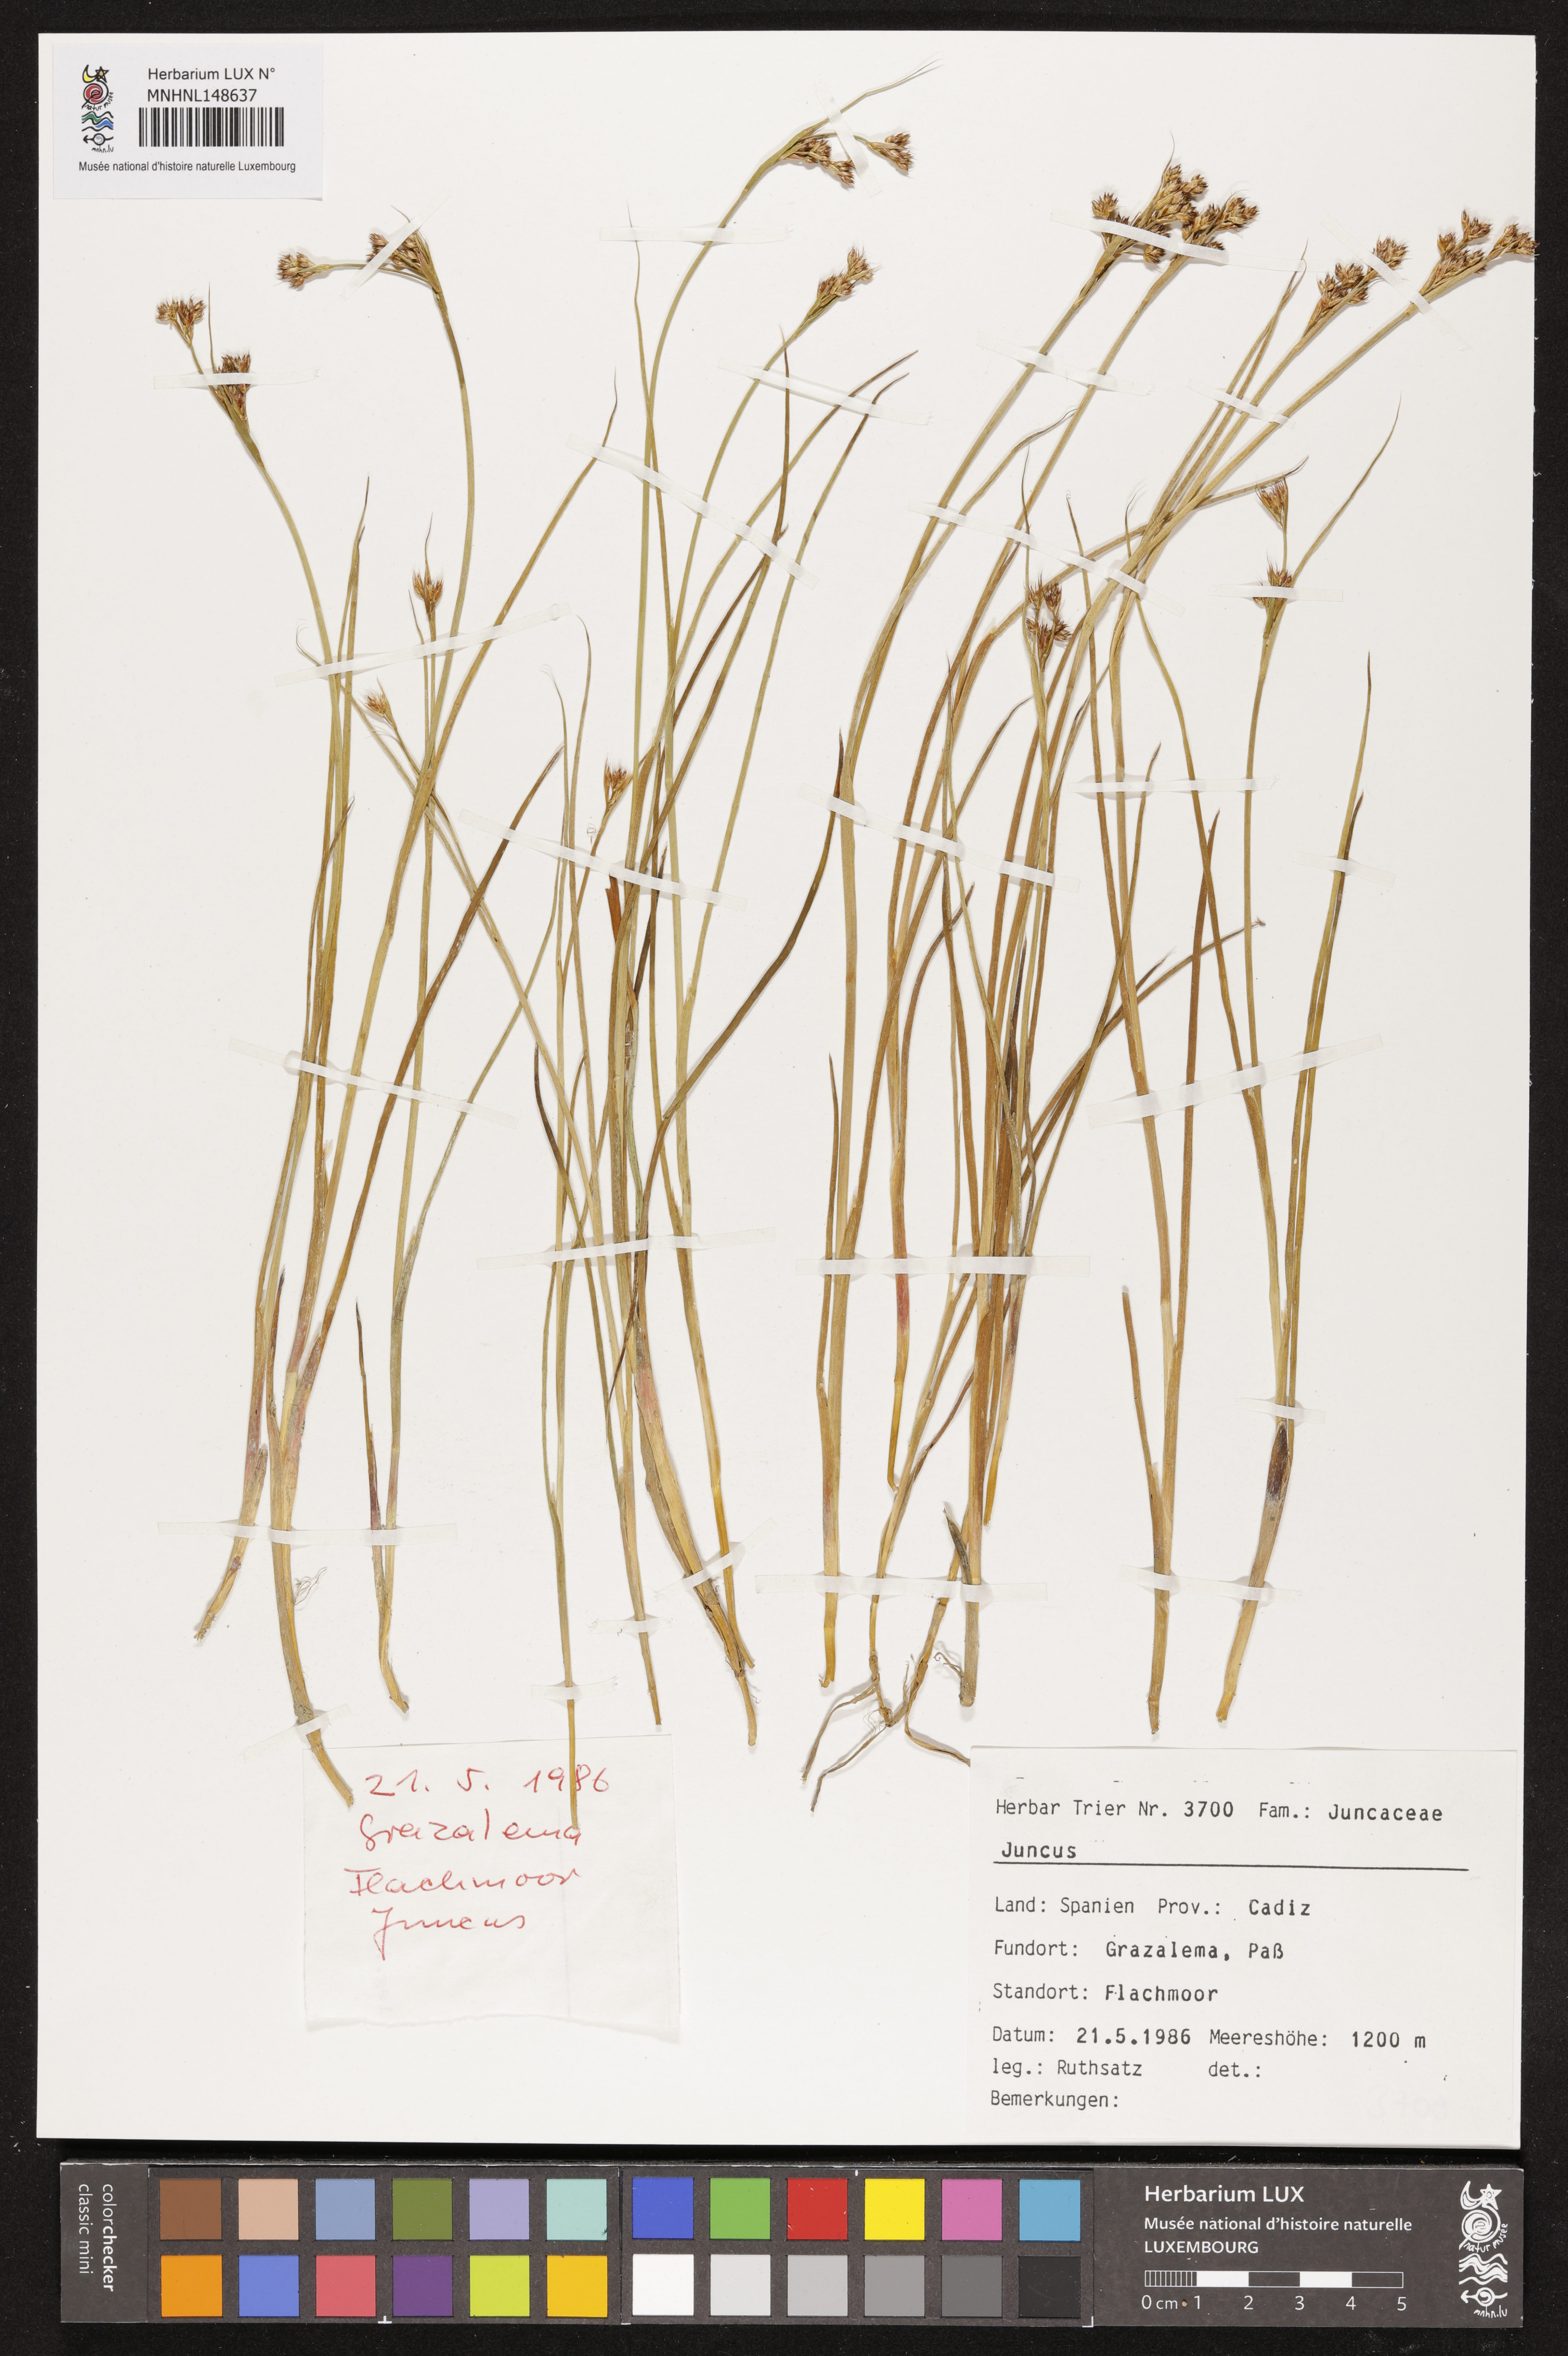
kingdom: Plantae
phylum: Tracheophyta
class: Liliopsida
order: Poales
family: Juncaceae
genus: Juncus
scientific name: Juncus
